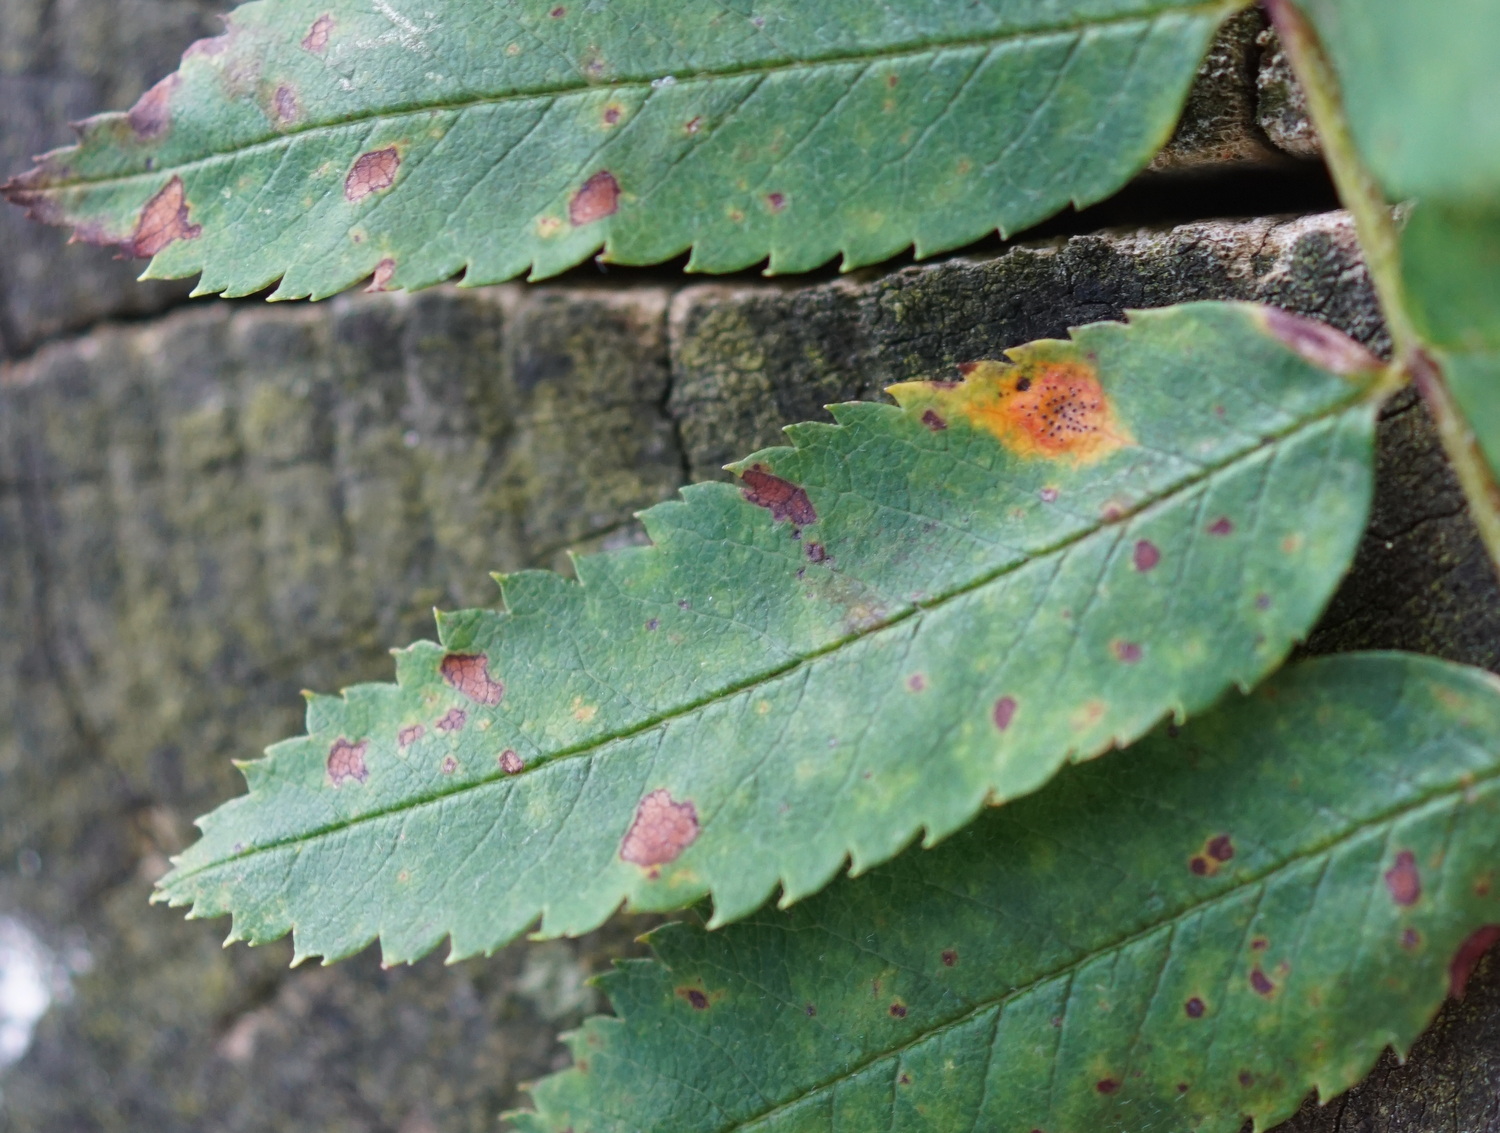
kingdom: Fungi
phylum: Basidiomycota
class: Pucciniomycetes
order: Pucciniales
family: Gymnosporangiaceae
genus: Gymnosporangium
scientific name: Gymnosporangium cornutum
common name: rønnehorn-bævrerust
